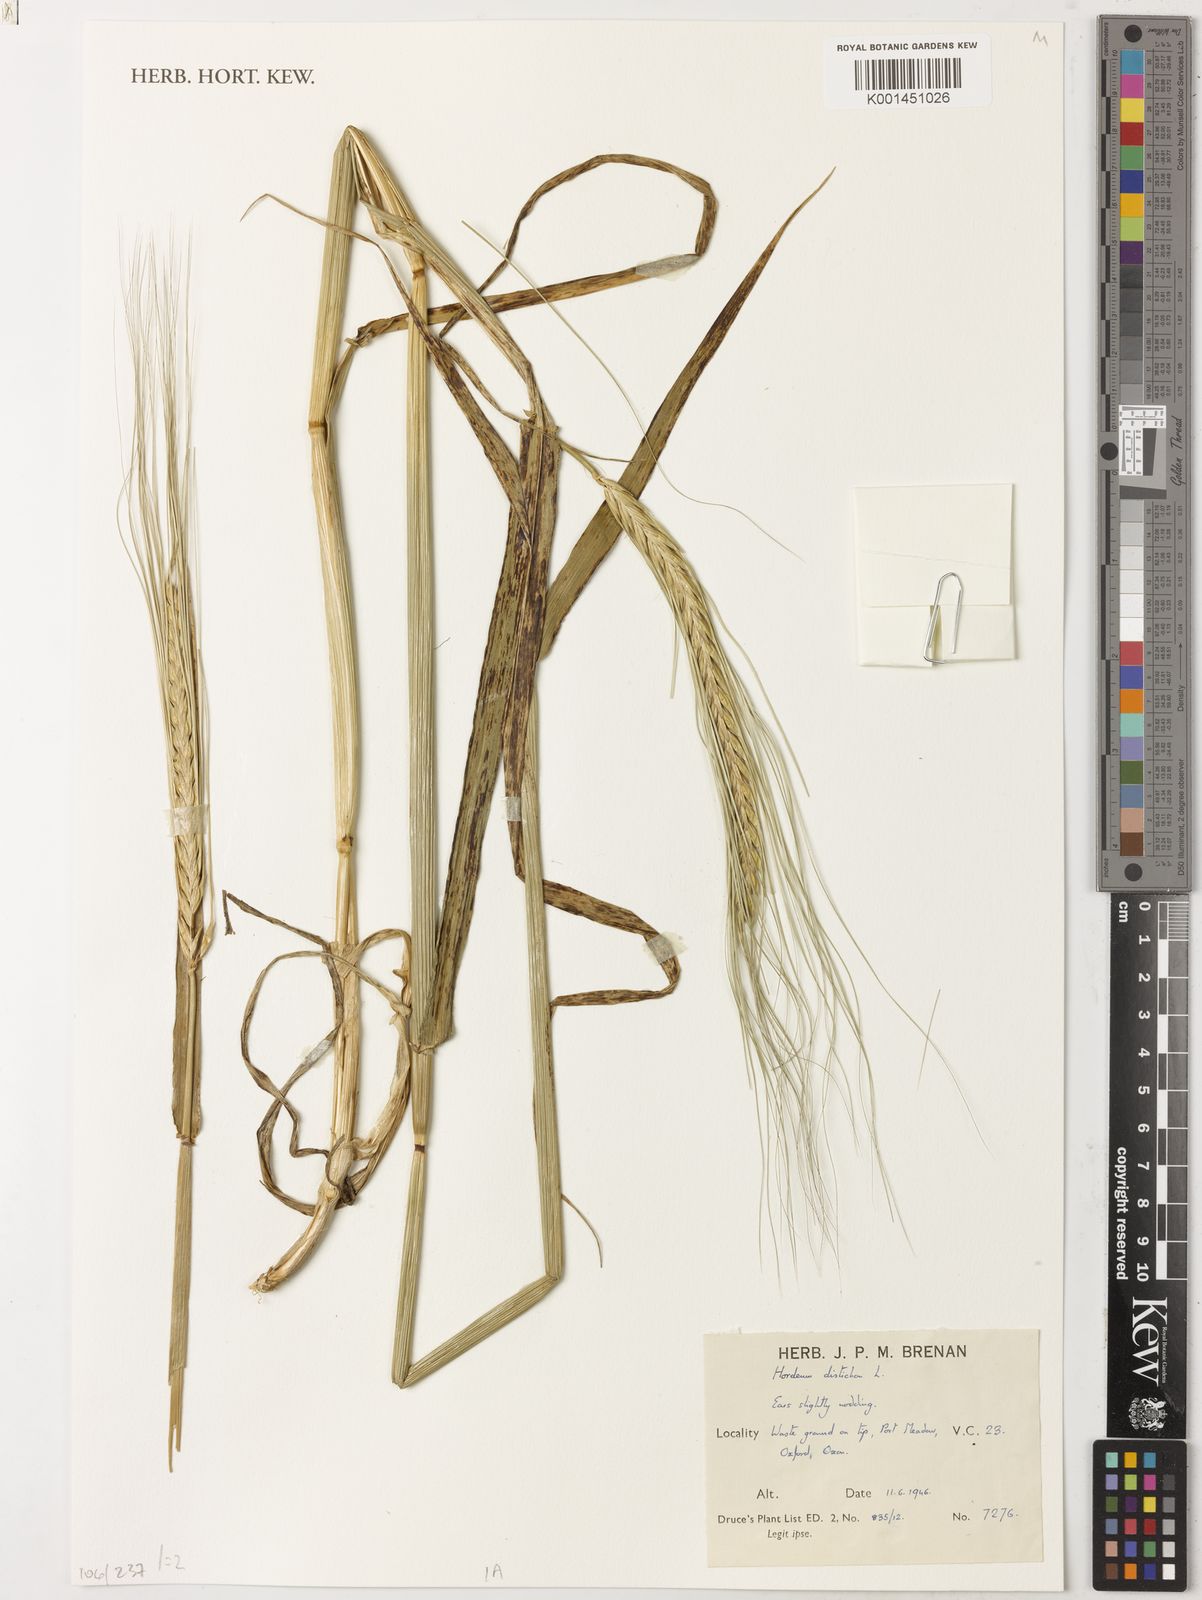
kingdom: Plantae
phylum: Tracheophyta
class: Liliopsida
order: Poales
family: Poaceae
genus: Hordeum
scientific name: Hordeum vulgare
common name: Common barley
